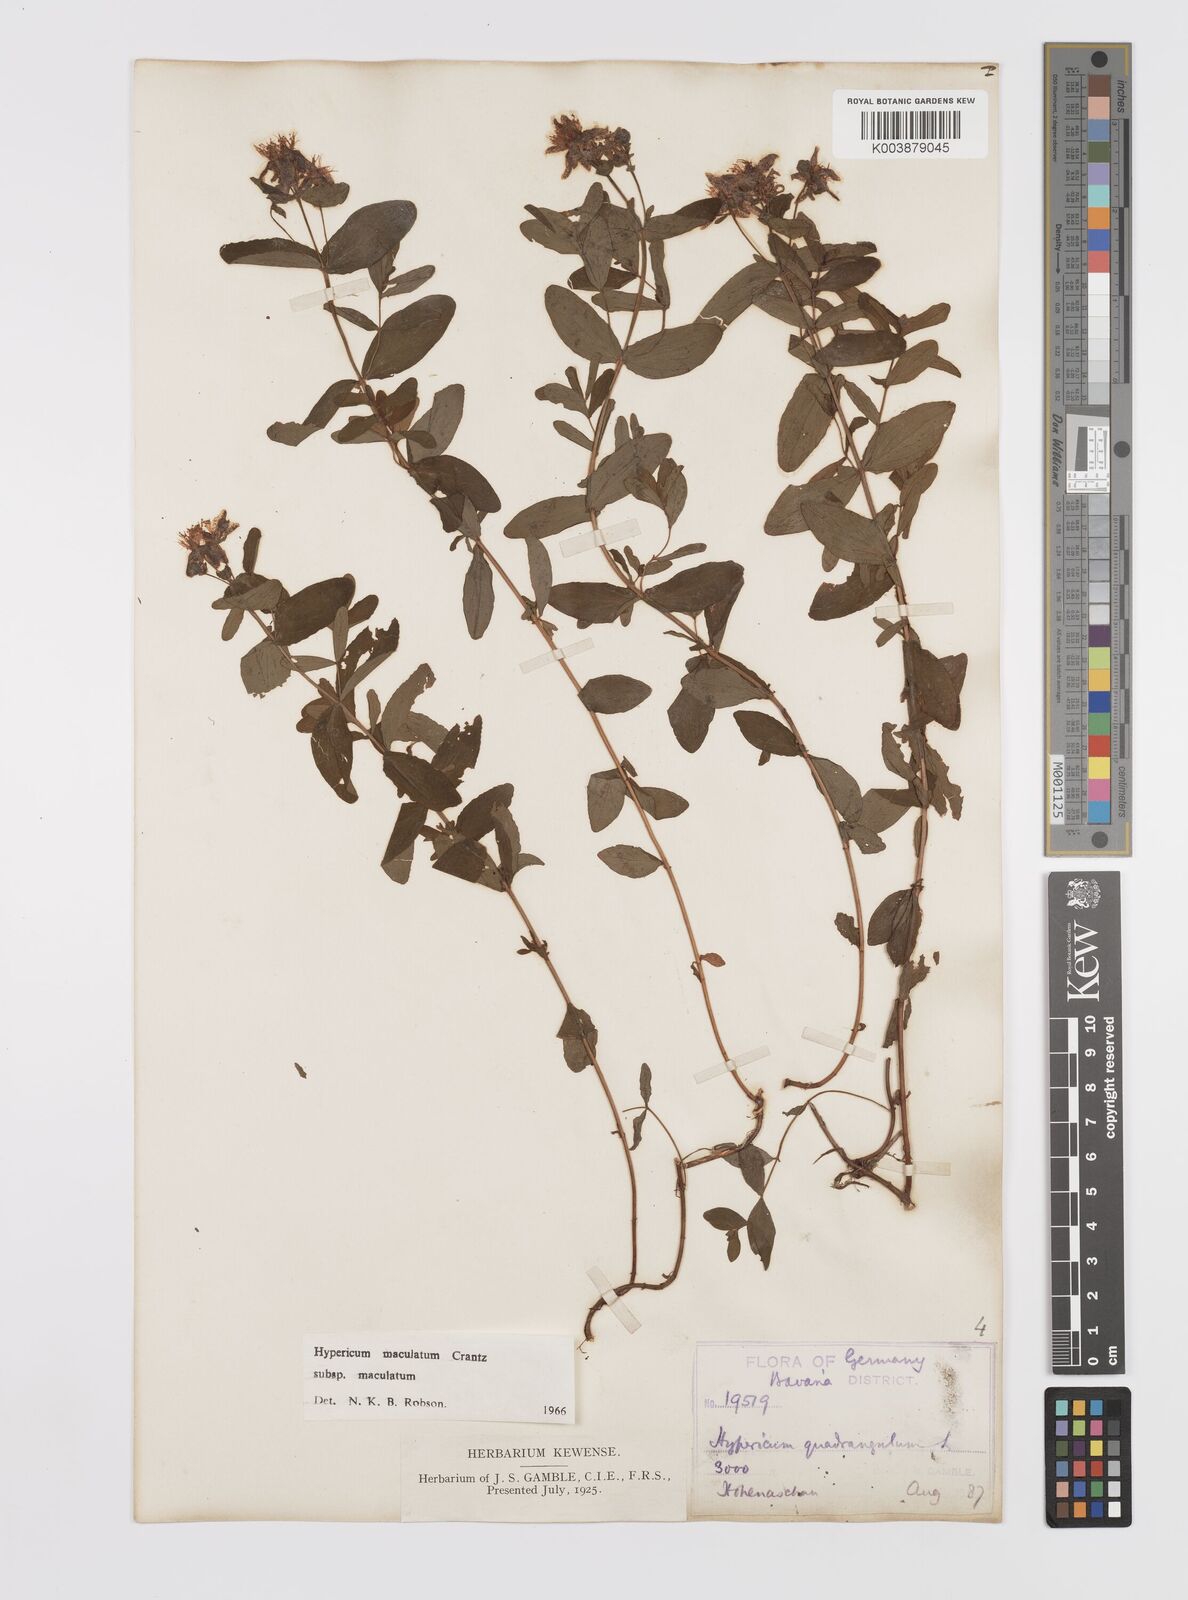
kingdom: Plantae
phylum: Tracheophyta
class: Magnoliopsida
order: Malpighiales
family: Hypericaceae
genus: Hypericum
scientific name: Hypericum maculatum
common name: Imperforate st. john's-wort
